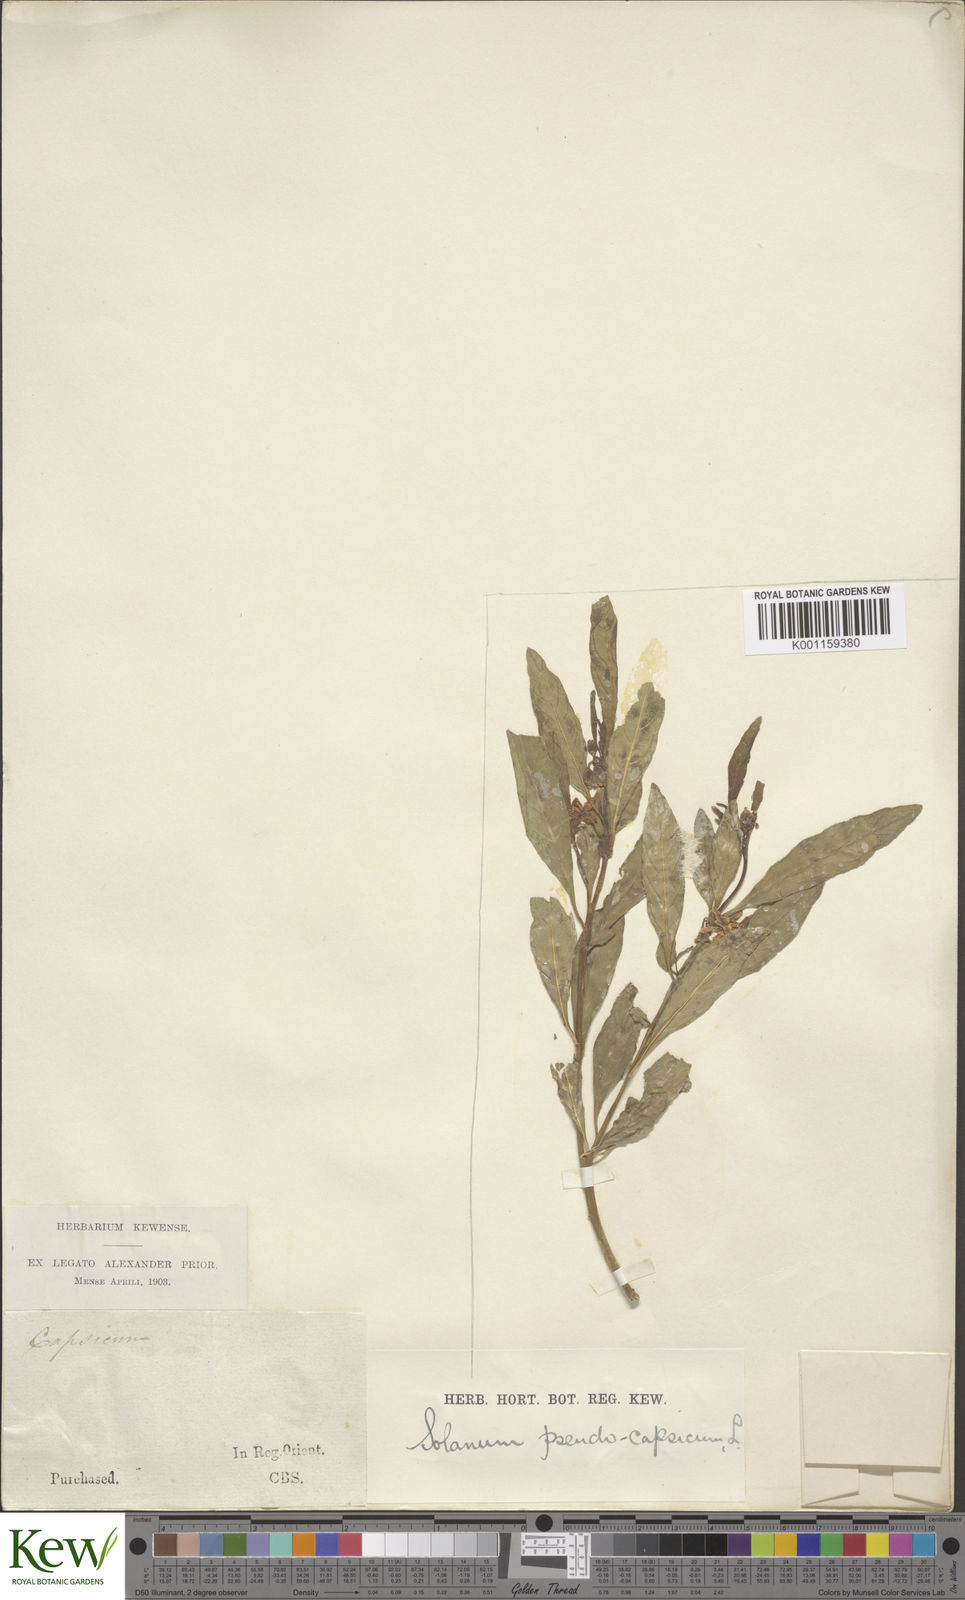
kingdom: Plantae
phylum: Tracheophyta
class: Magnoliopsida
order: Solanales
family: Solanaceae
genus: Solanum
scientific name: Solanum pseudocapsicum
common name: Jerusalem cherry
